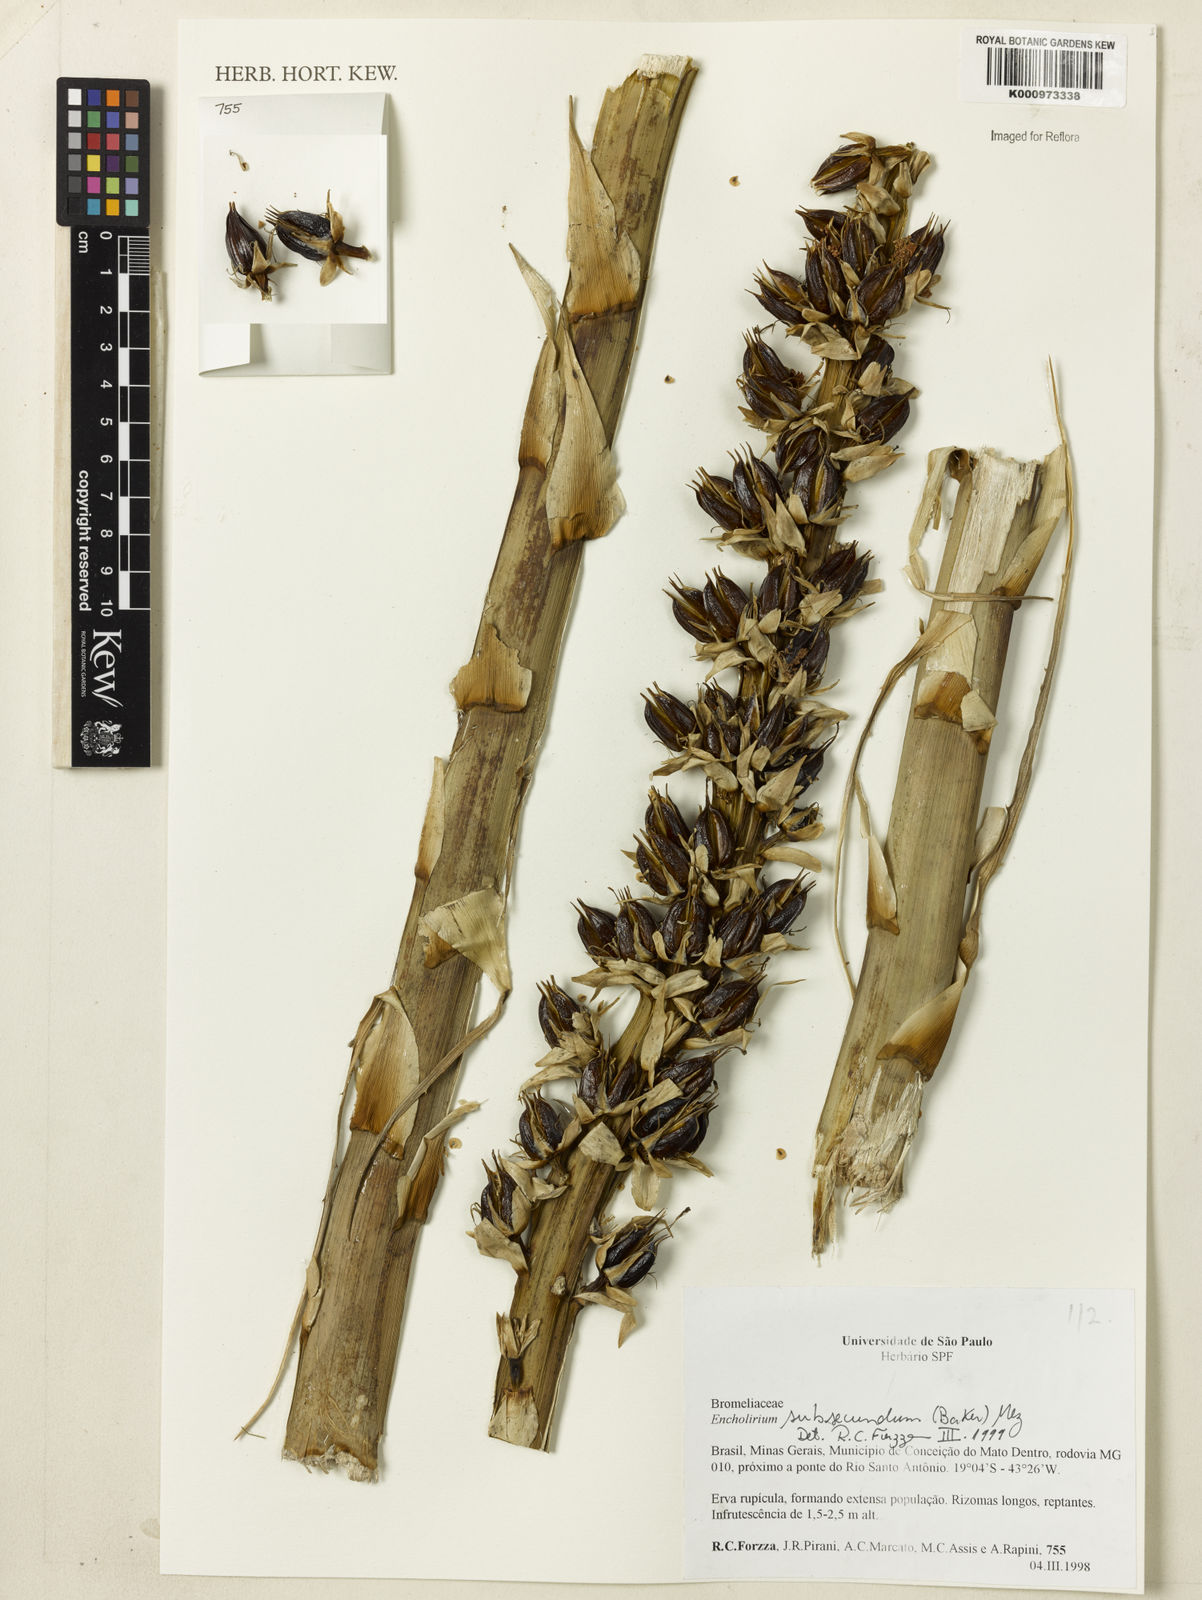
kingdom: Plantae
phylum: Tracheophyta
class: Liliopsida
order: Poales
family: Bromeliaceae
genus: Encholirium
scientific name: Encholirium subsecundum
